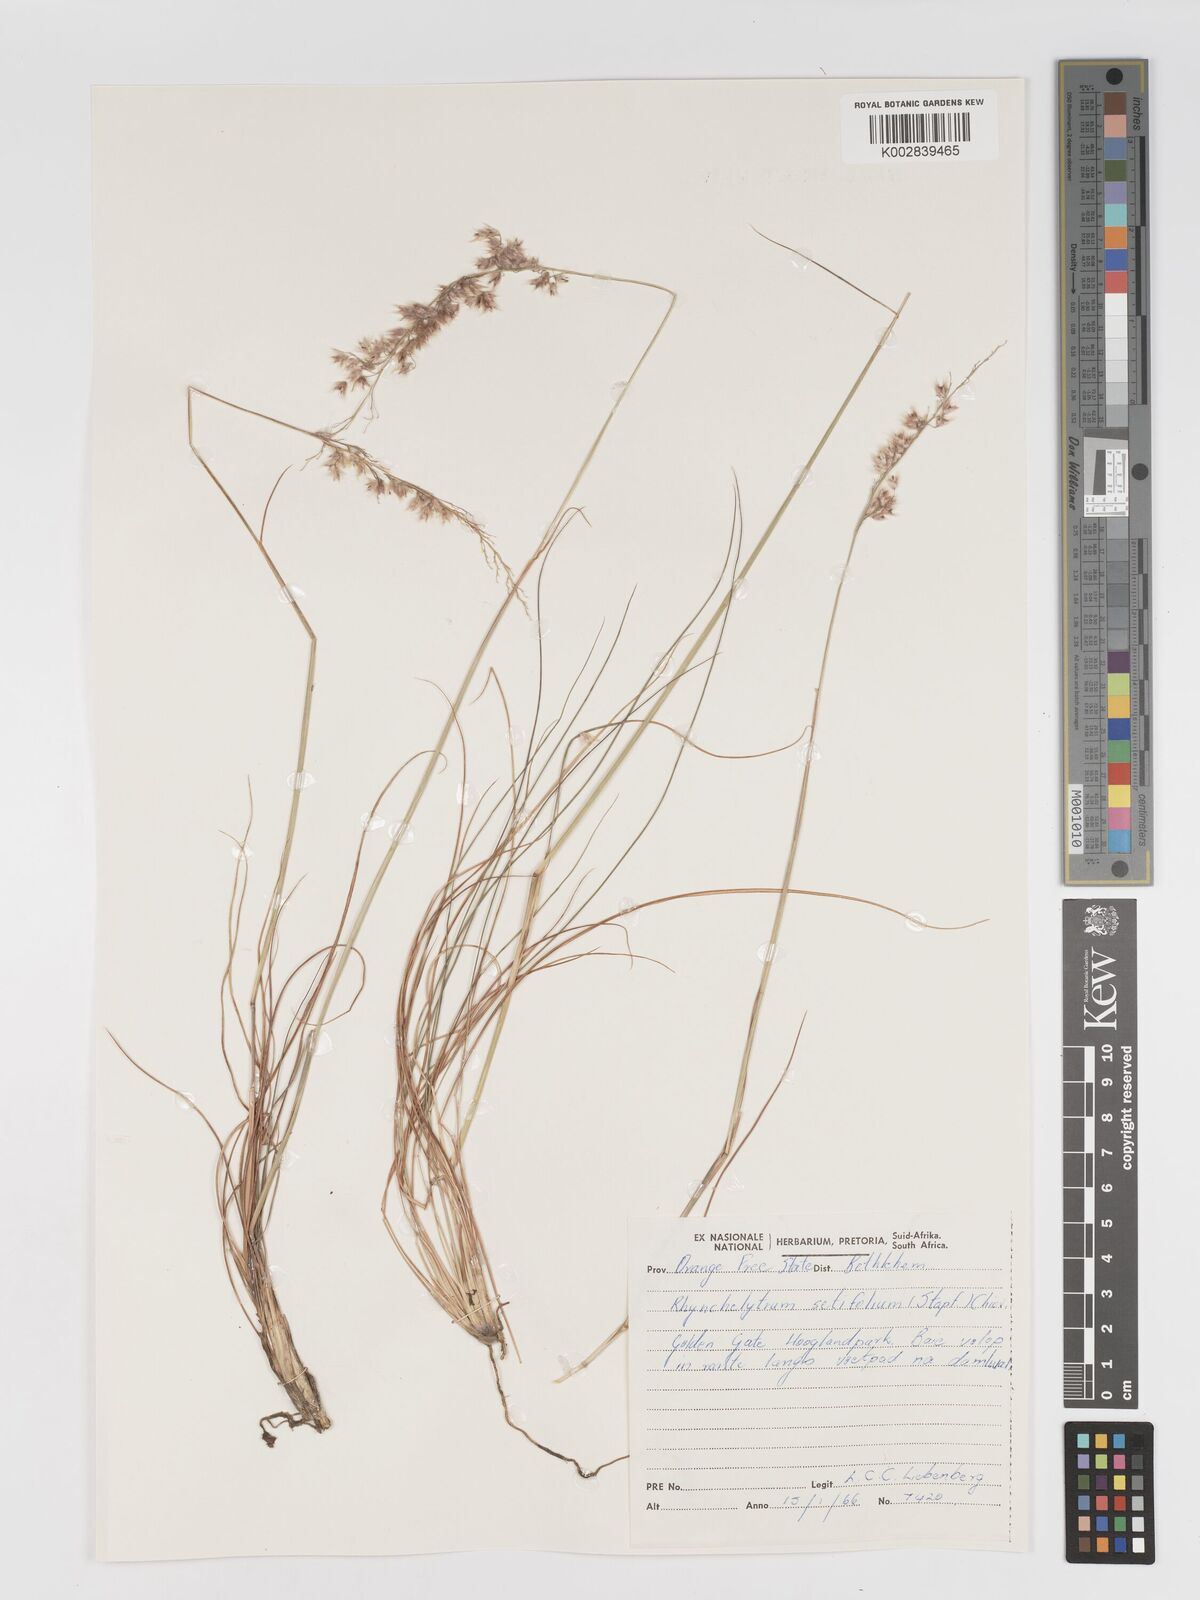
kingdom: Plantae
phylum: Tracheophyta
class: Liliopsida
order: Poales
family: Poaceae
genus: Melinis
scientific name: Melinis nerviglumis
